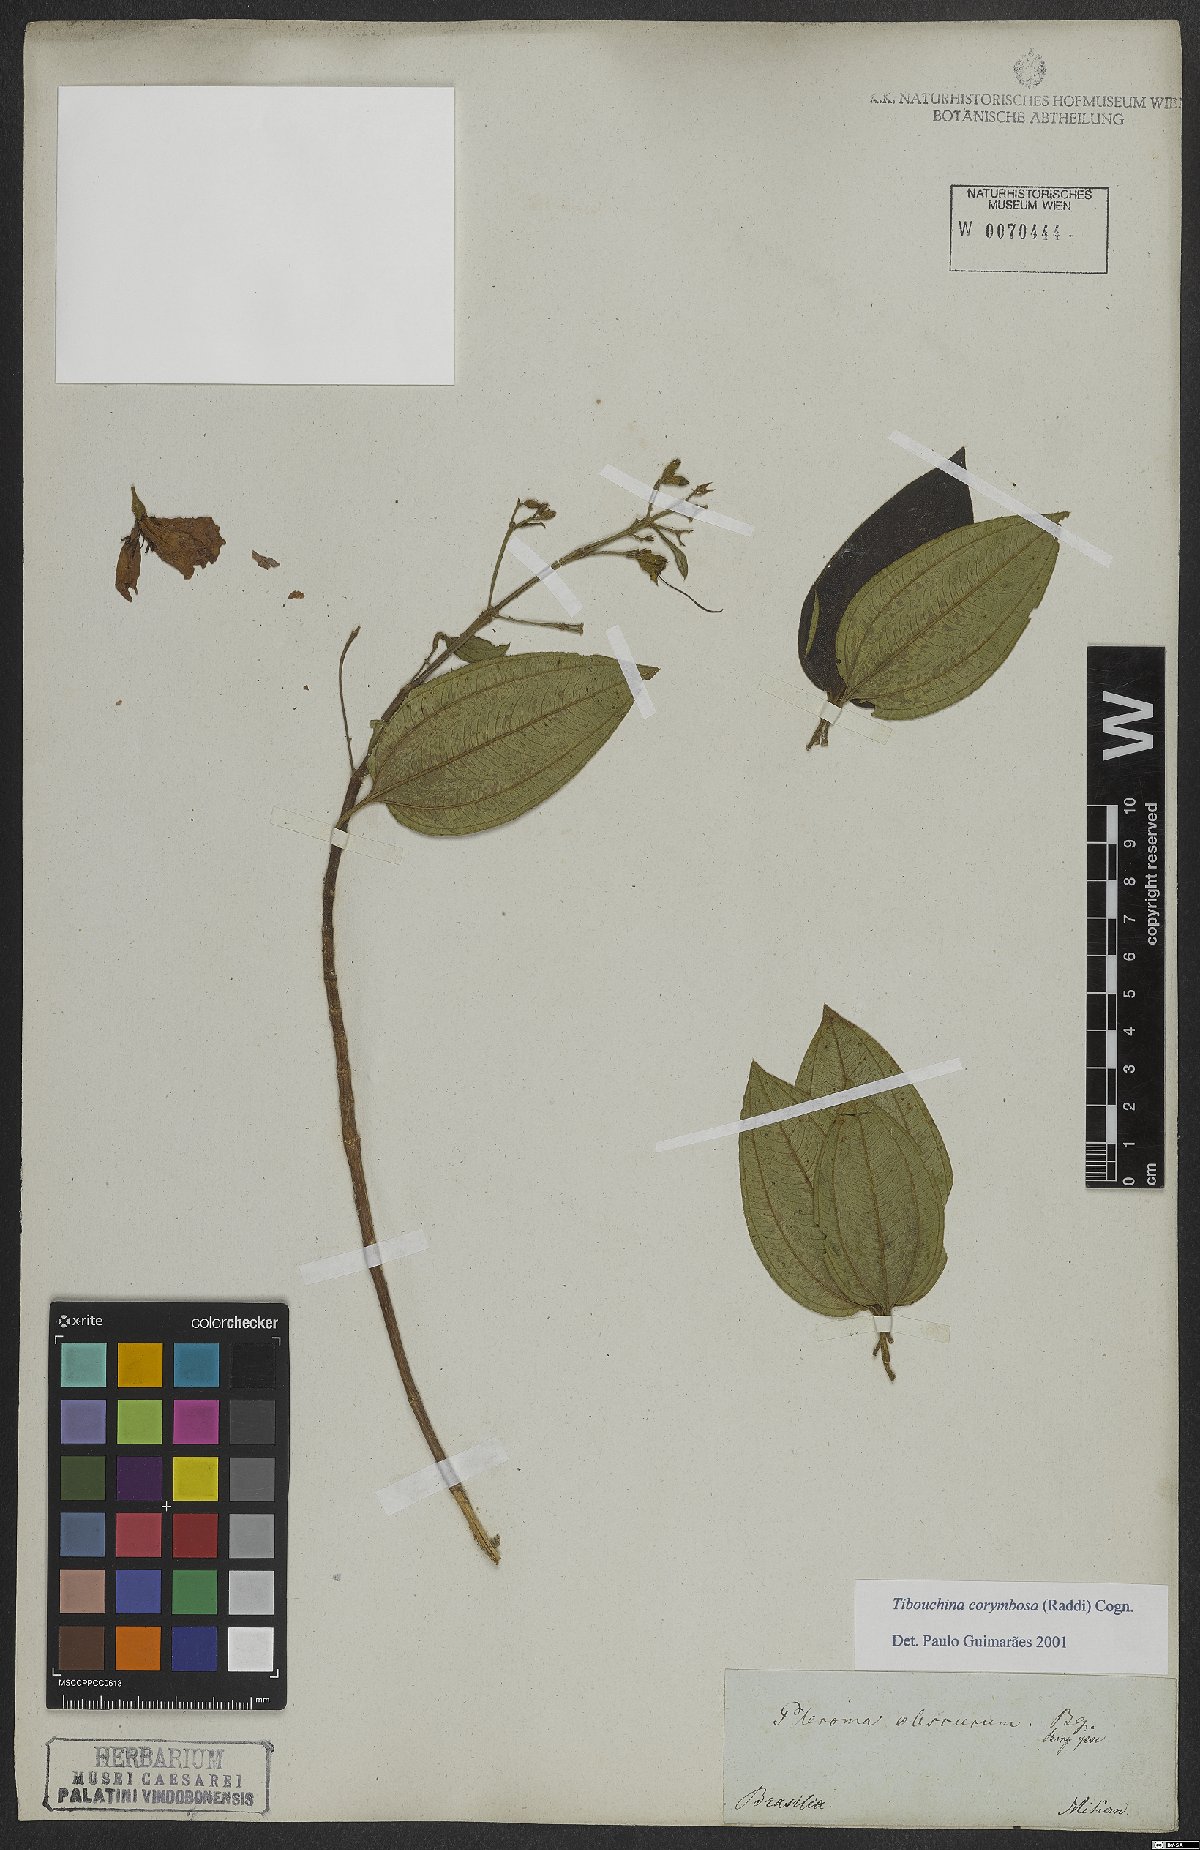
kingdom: Plantae
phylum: Tracheophyta
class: Magnoliopsida
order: Myrtales
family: Melastomataceae
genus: Pleroma
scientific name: Pleroma vimineum
